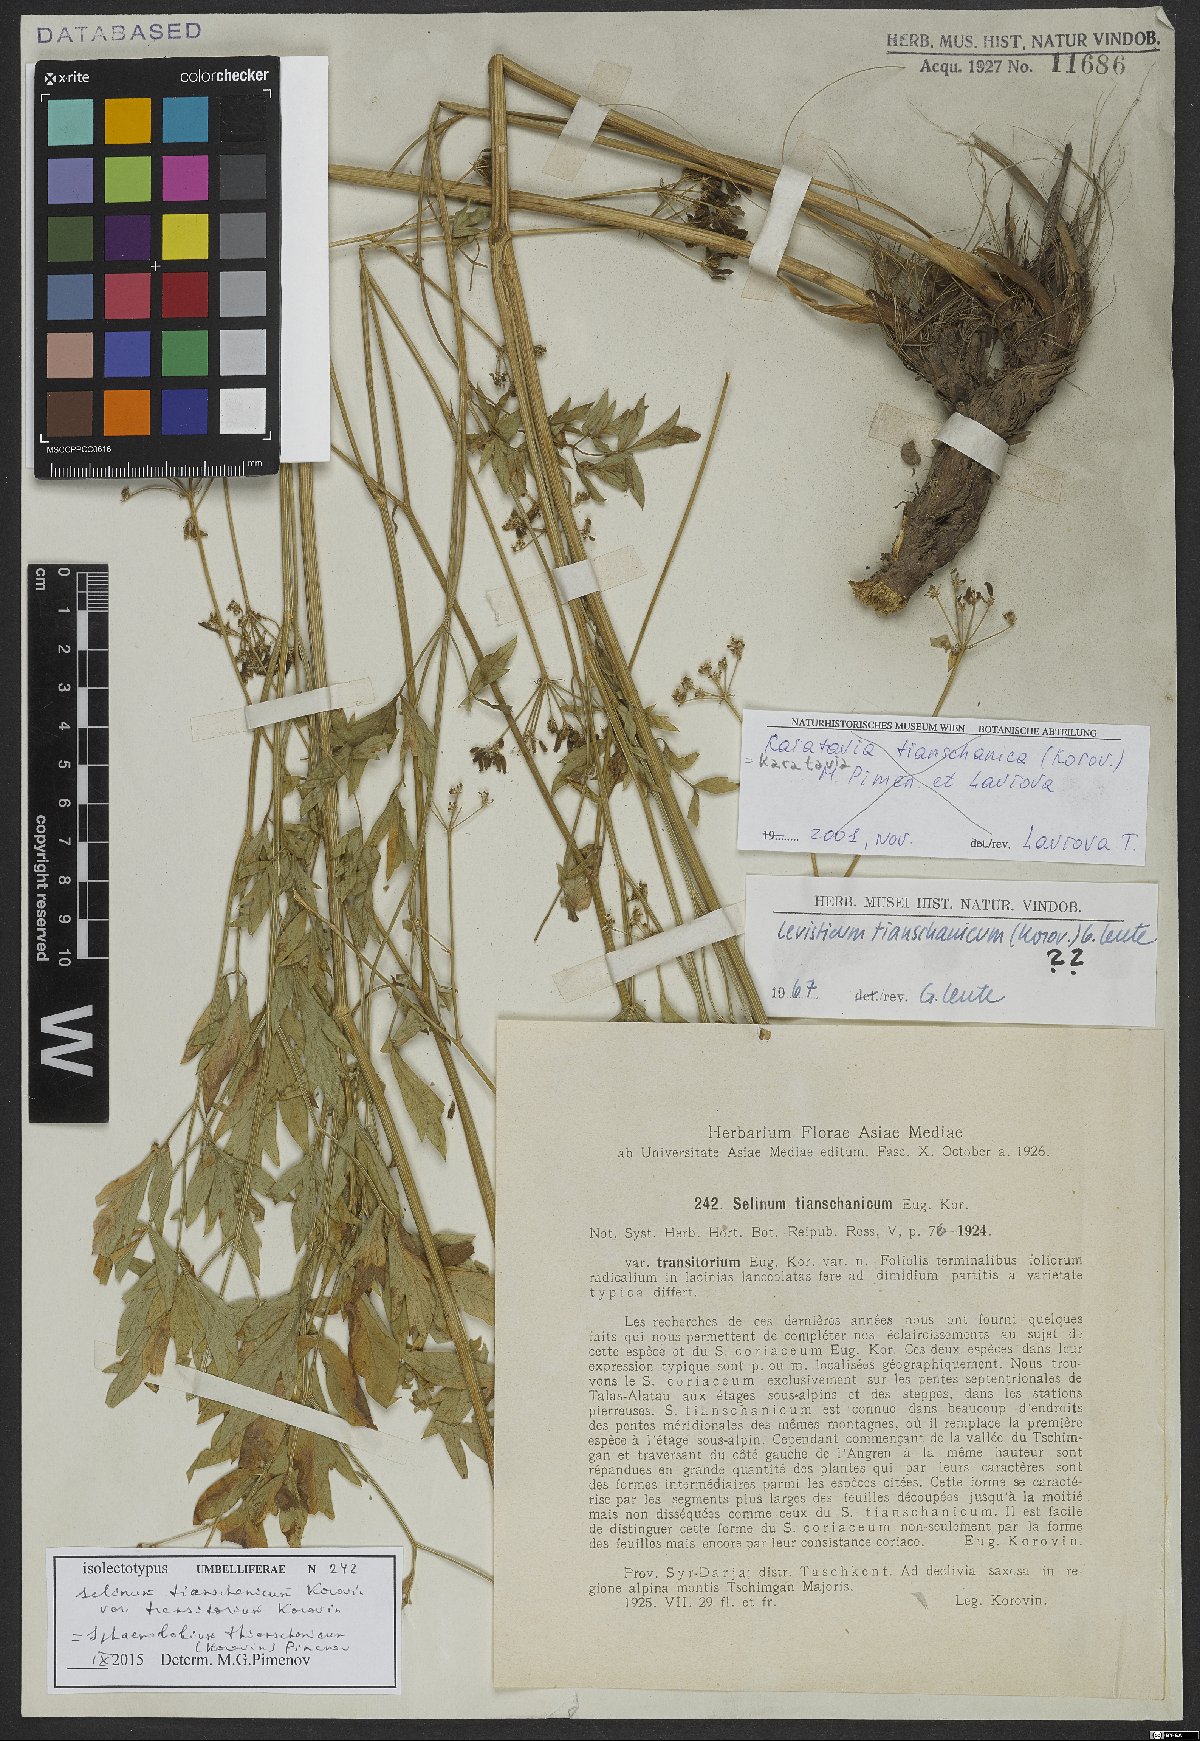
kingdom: Plantae
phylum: Tracheophyta
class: Magnoliopsida
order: Apiales
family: Apiaceae
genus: Sphaenolobium
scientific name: Sphaenolobium tianschanicum
